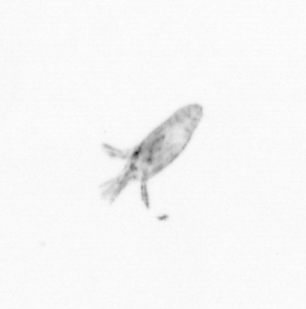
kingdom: Animalia
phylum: Arthropoda
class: Copepoda
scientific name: Copepoda
